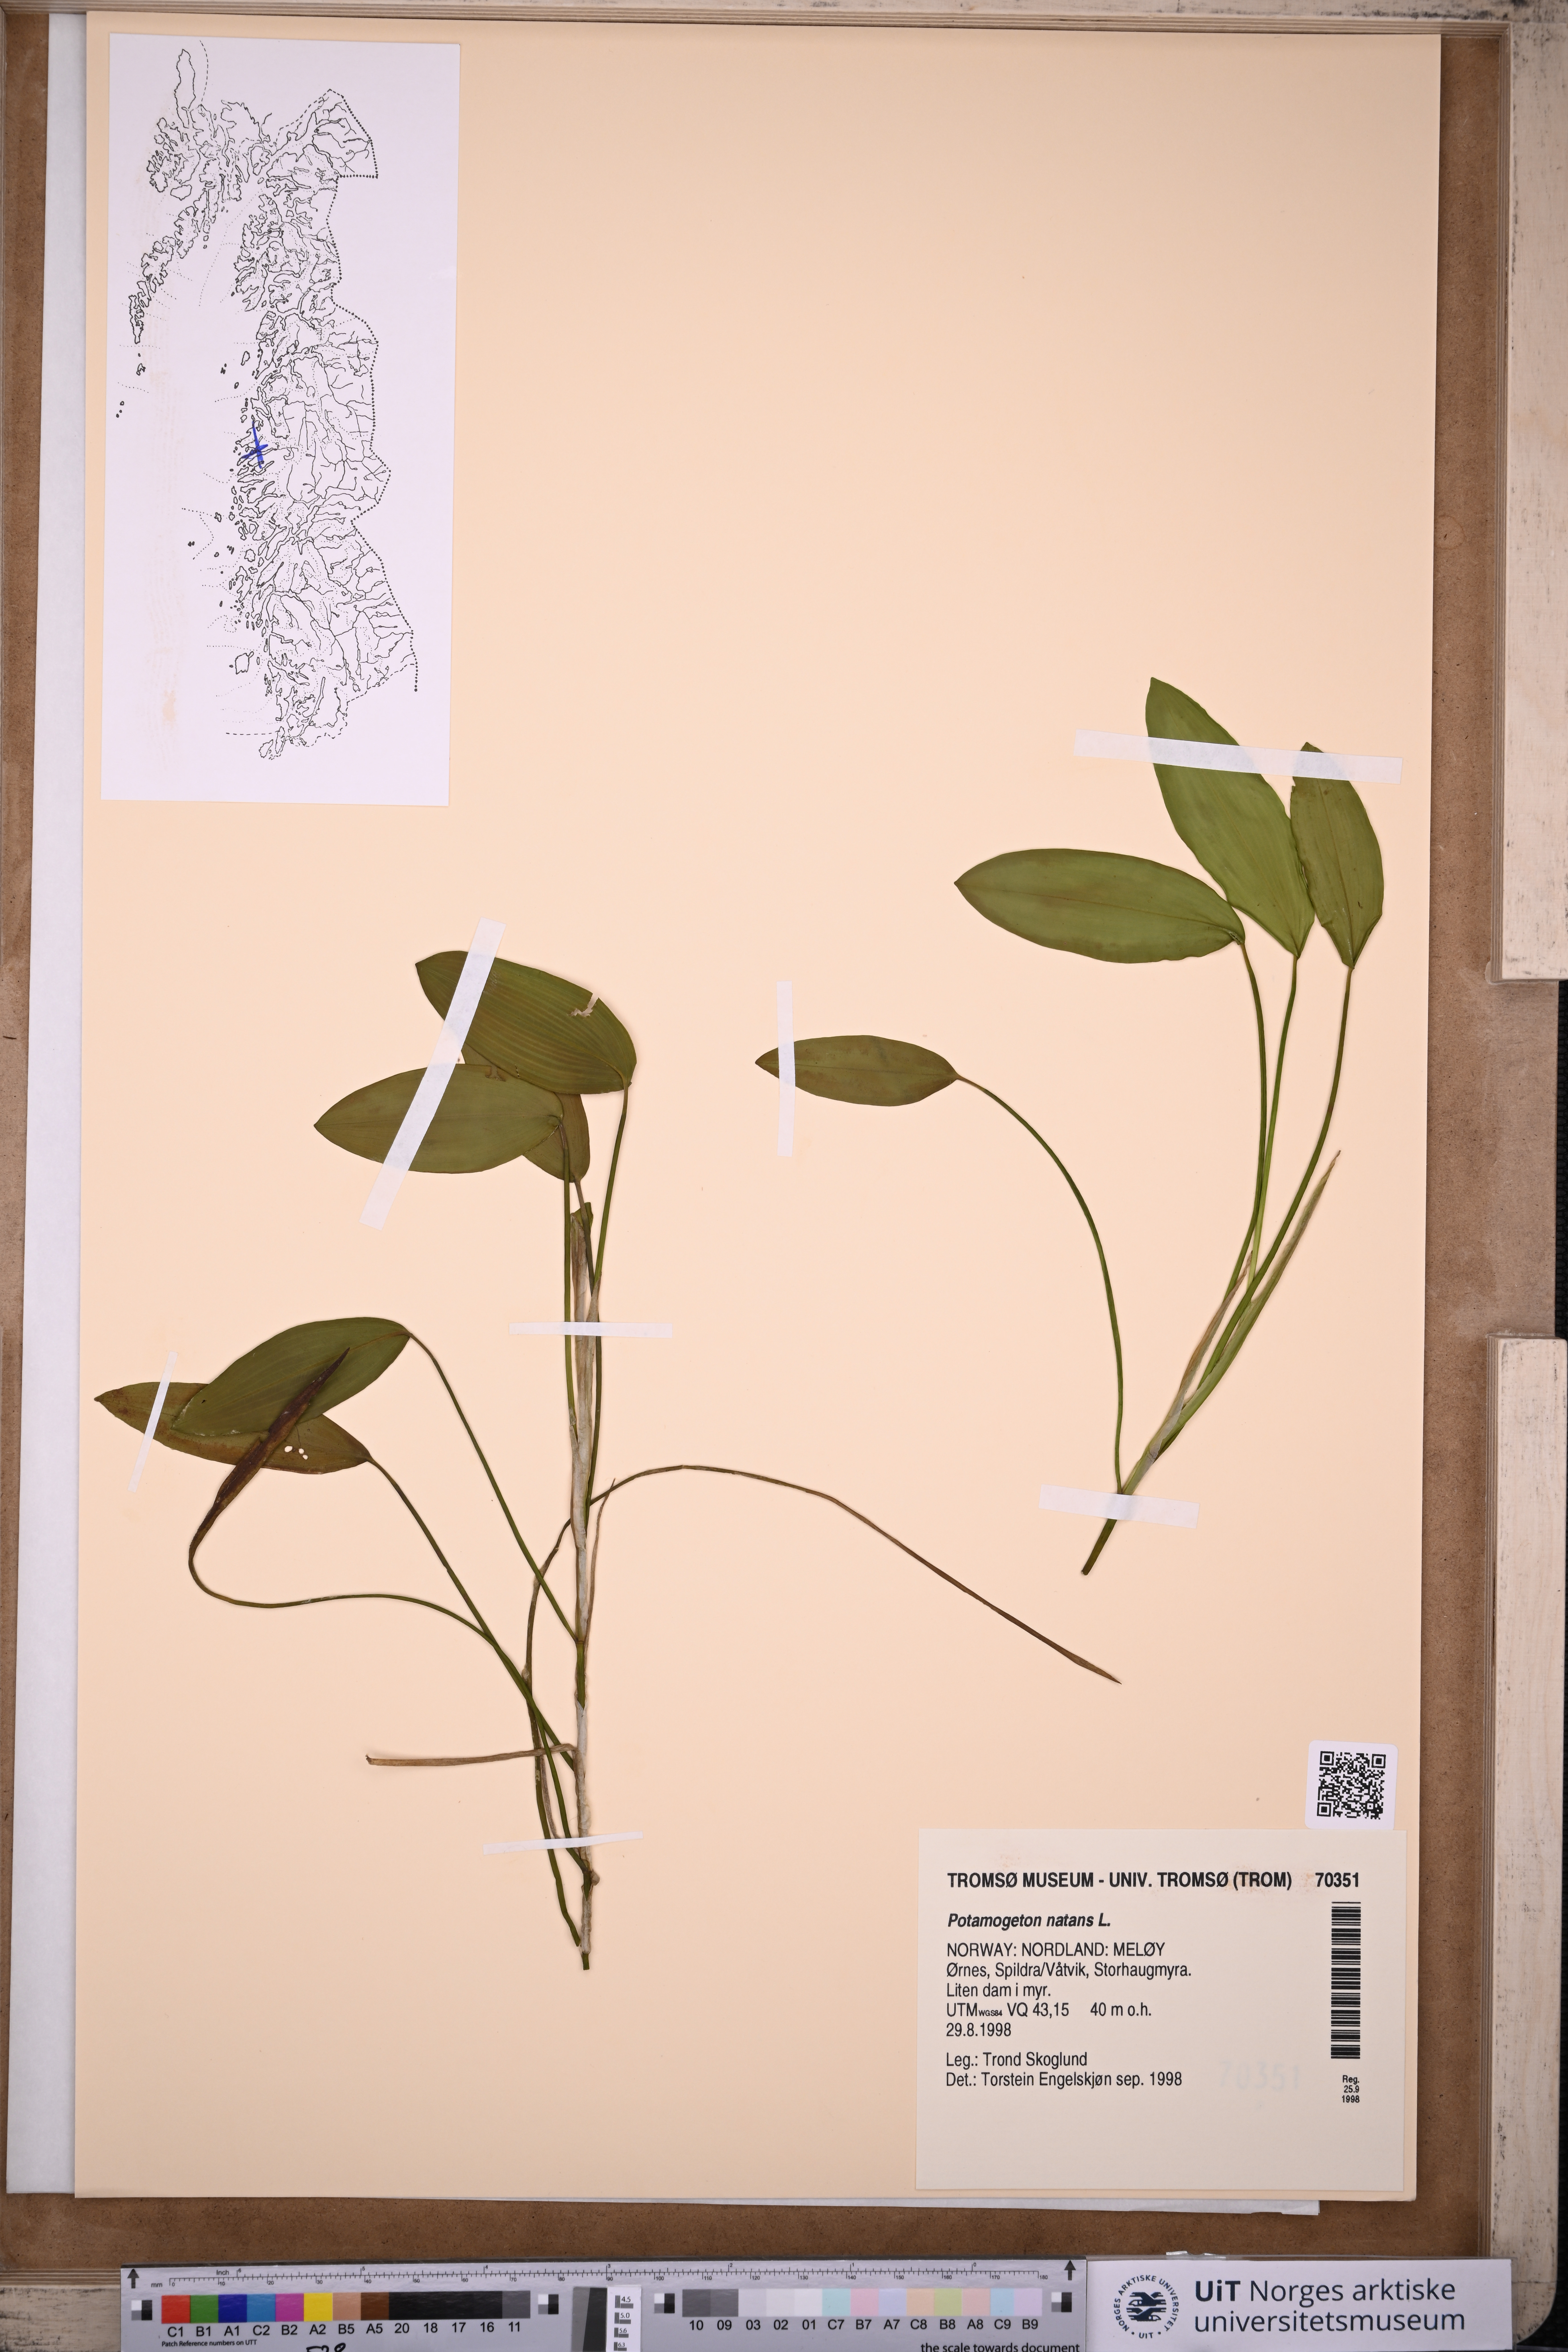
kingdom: Plantae
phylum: Tracheophyta
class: Liliopsida
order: Alismatales
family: Potamogetonaceae
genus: Potamogeton
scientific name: Potamogeton natans
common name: Broad-leaved pondweed
